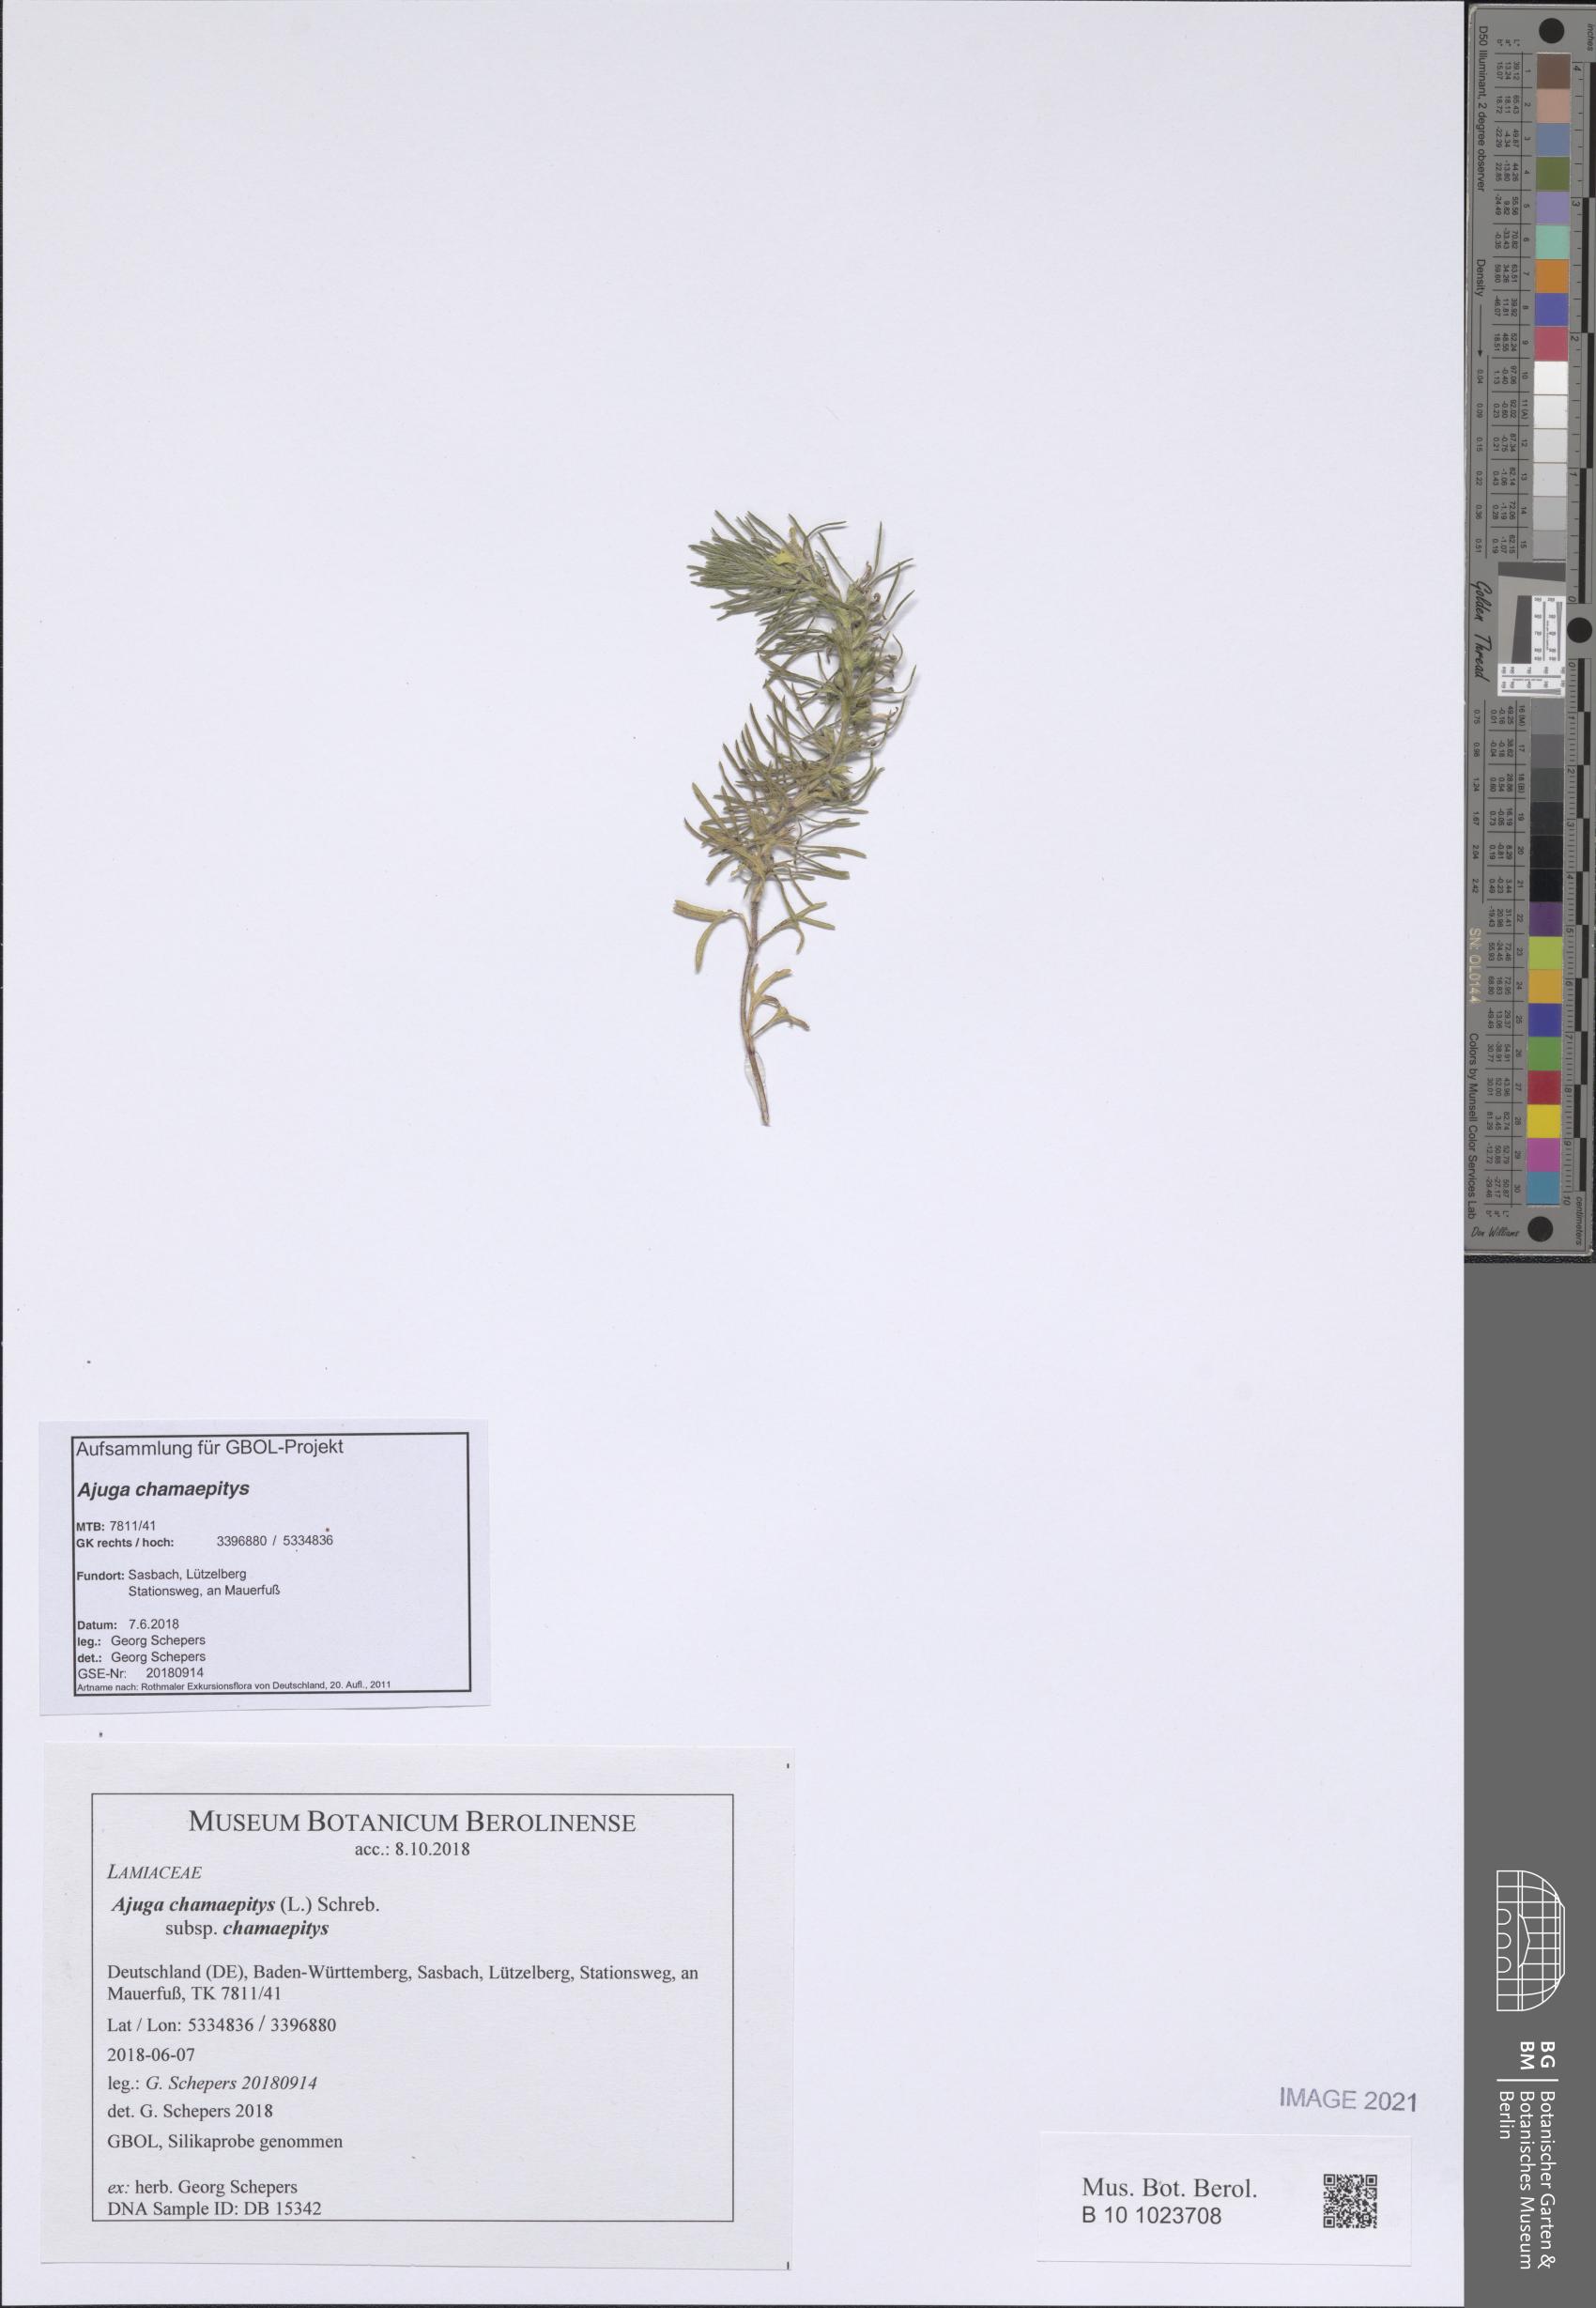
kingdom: Plantae
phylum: Tracheophyta
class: Magnoliopsida
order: Lamiales
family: Lamiaceae
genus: Ajuga
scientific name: Ajuga chamaepitys
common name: Ground-pine
